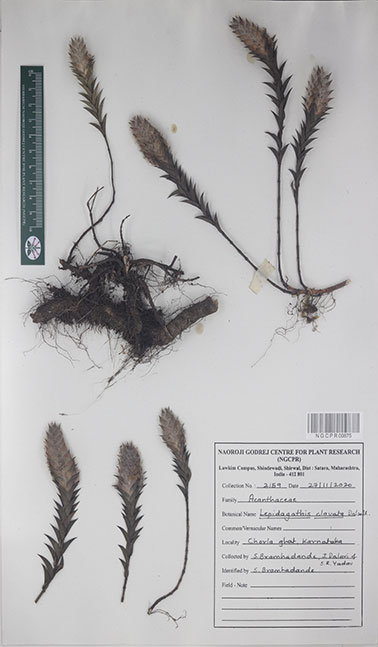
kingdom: Plantae
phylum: Tracheophyta
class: Magnoliopsida
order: Lamiales
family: Acanthaceae
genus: Lepidagathis
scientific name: Lepidagathis clavata
